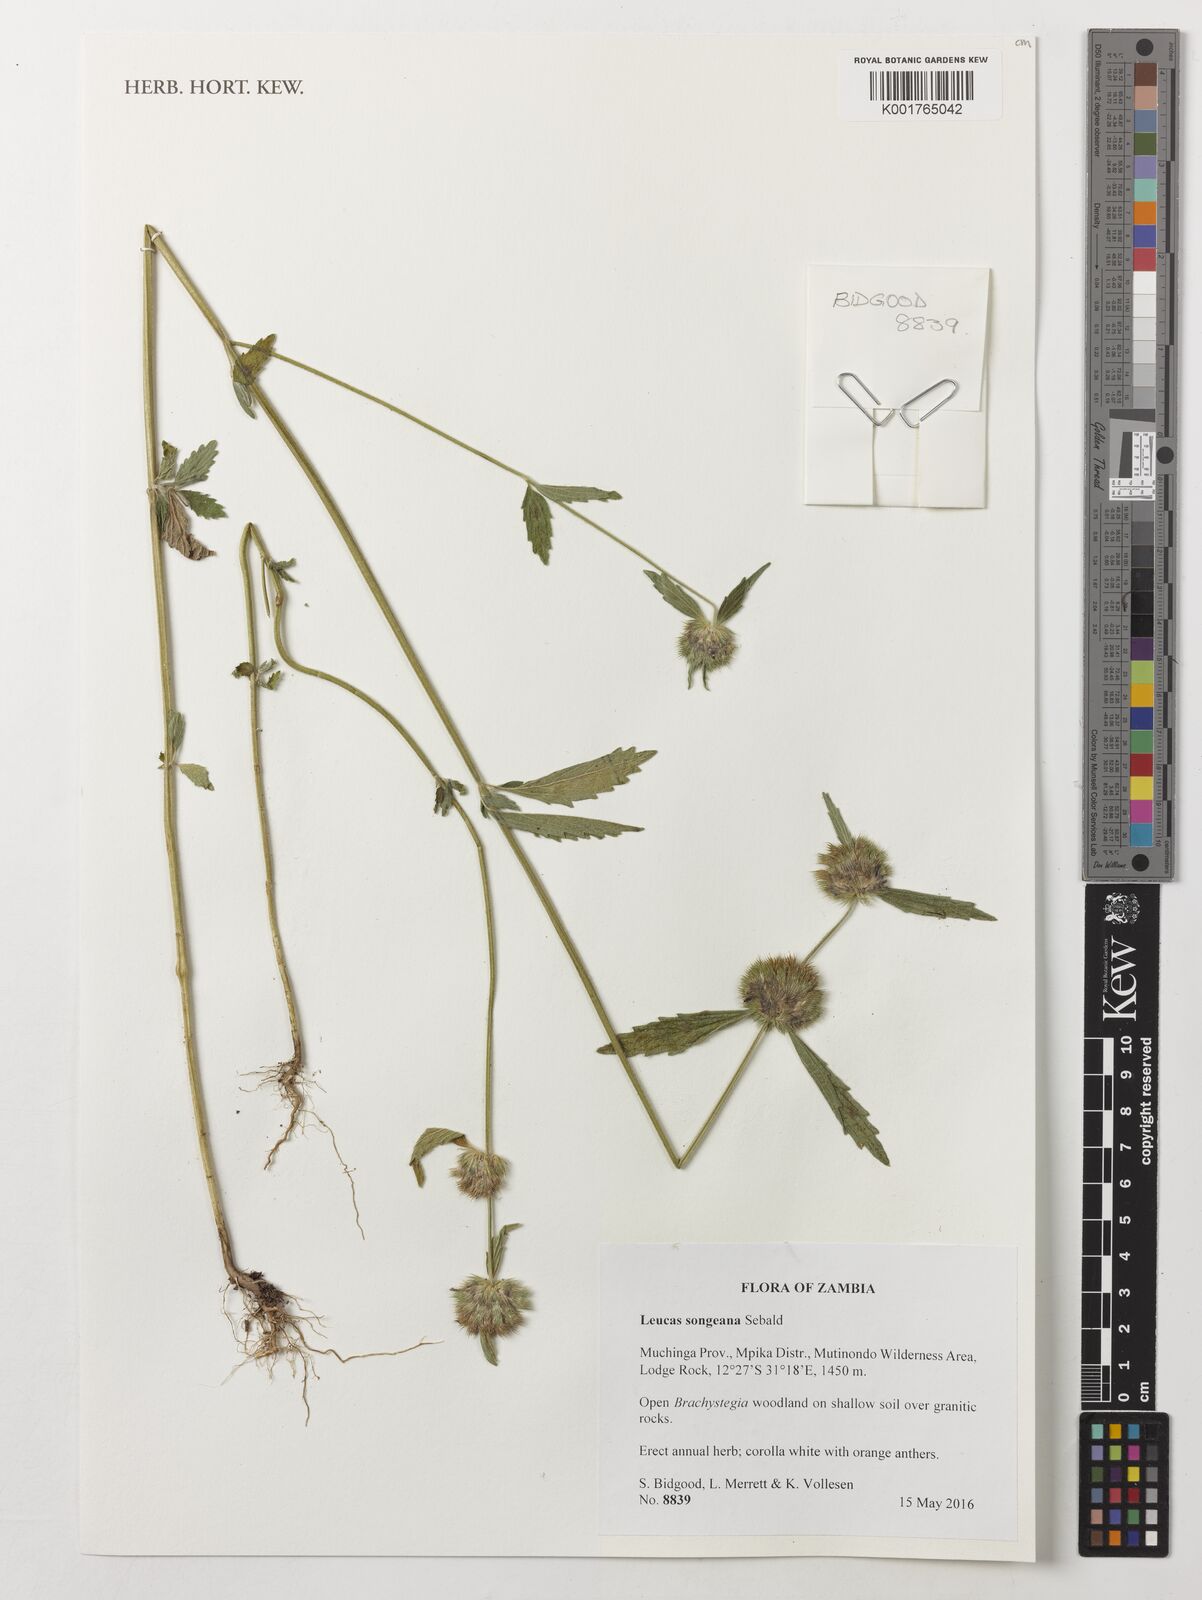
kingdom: Plantae
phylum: Tracheophyta
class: Magnoliopsida
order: Lamiales
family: Lamiaceae
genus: Leucas
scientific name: Leucas songeana
